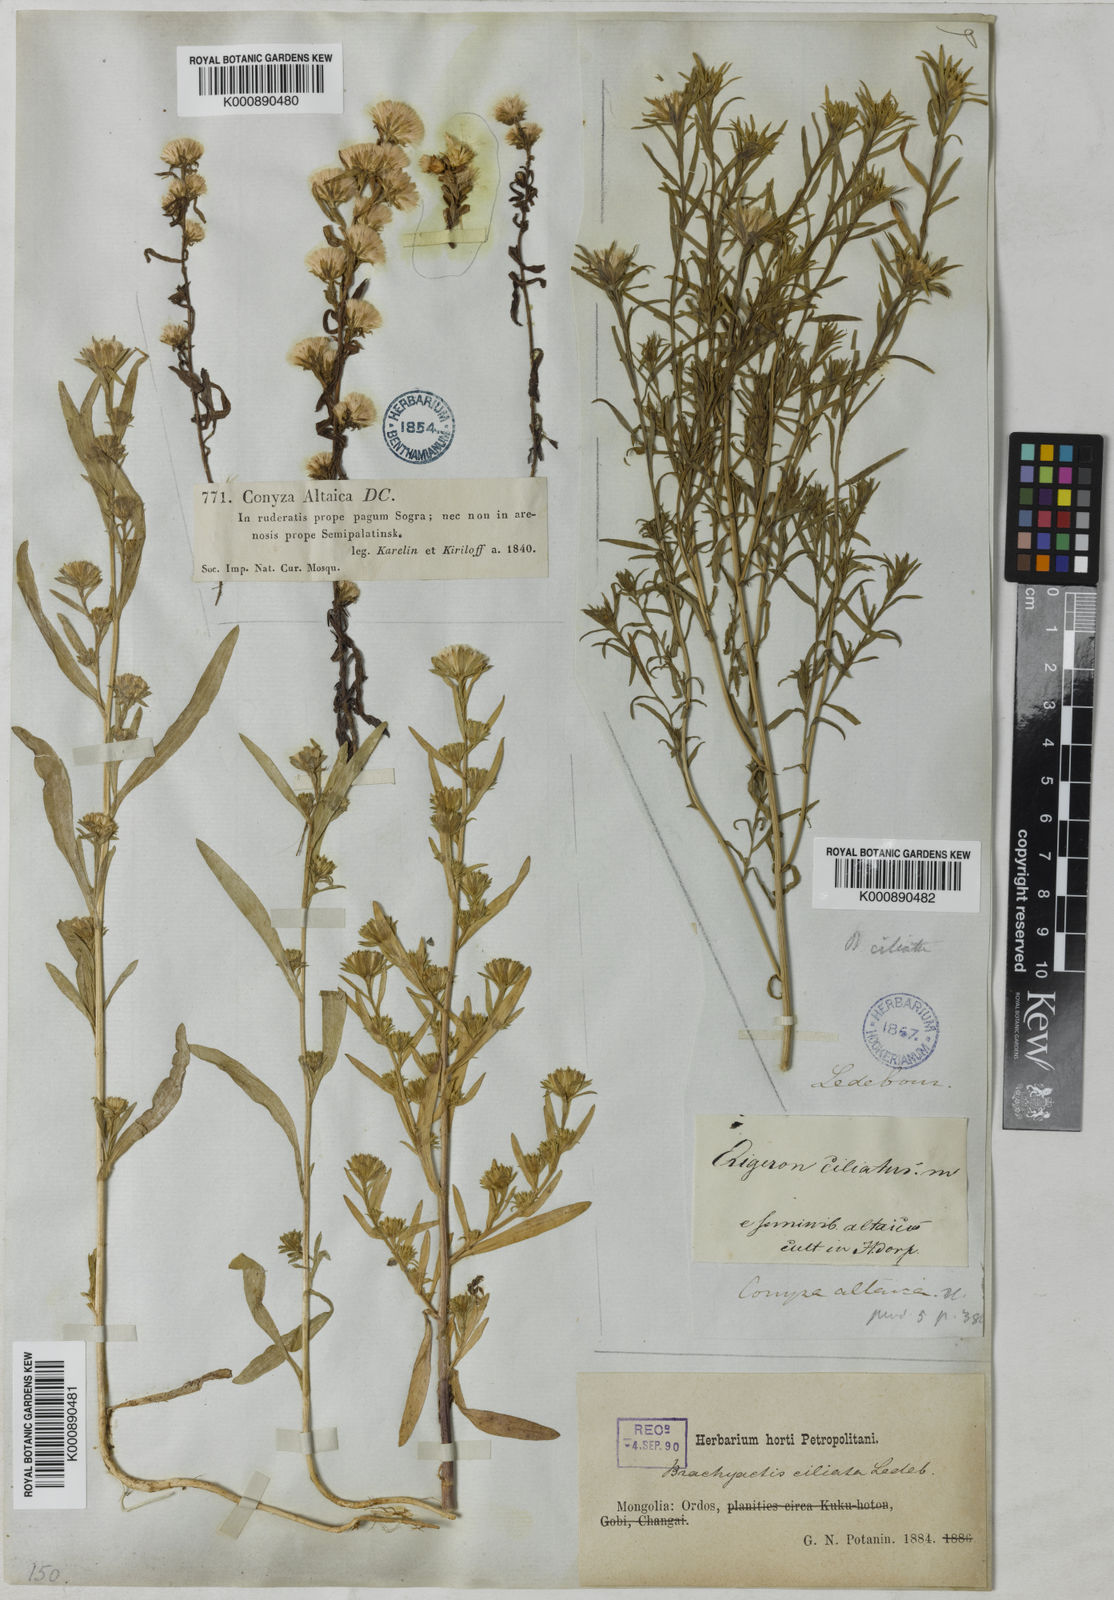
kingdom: Plantae
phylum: Tracheophyta
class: Magnoliopsida
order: Asterales
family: Asteraceae
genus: Aster
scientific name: Aster
